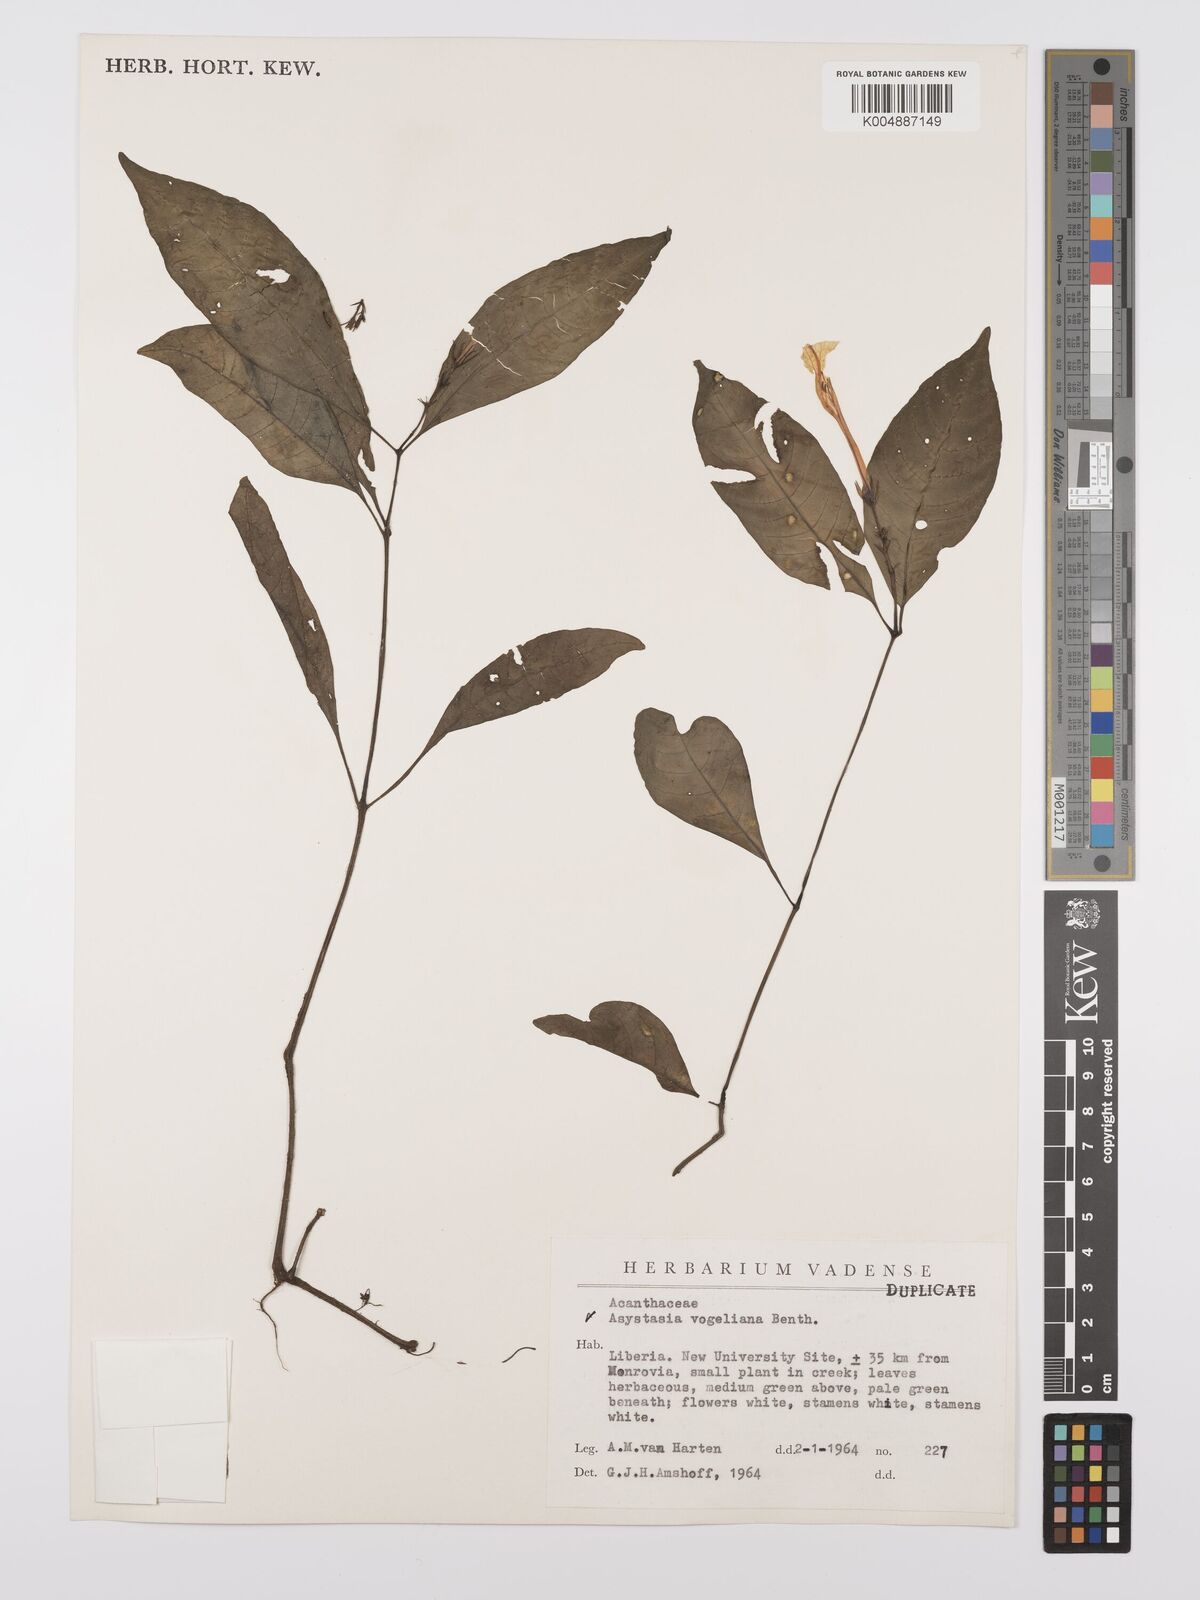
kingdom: Plantae
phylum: Tracheophyta
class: Magnoliopsida
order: Lamiales
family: Acanthaceae
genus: Asystasia
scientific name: Asystasia vogeliana
